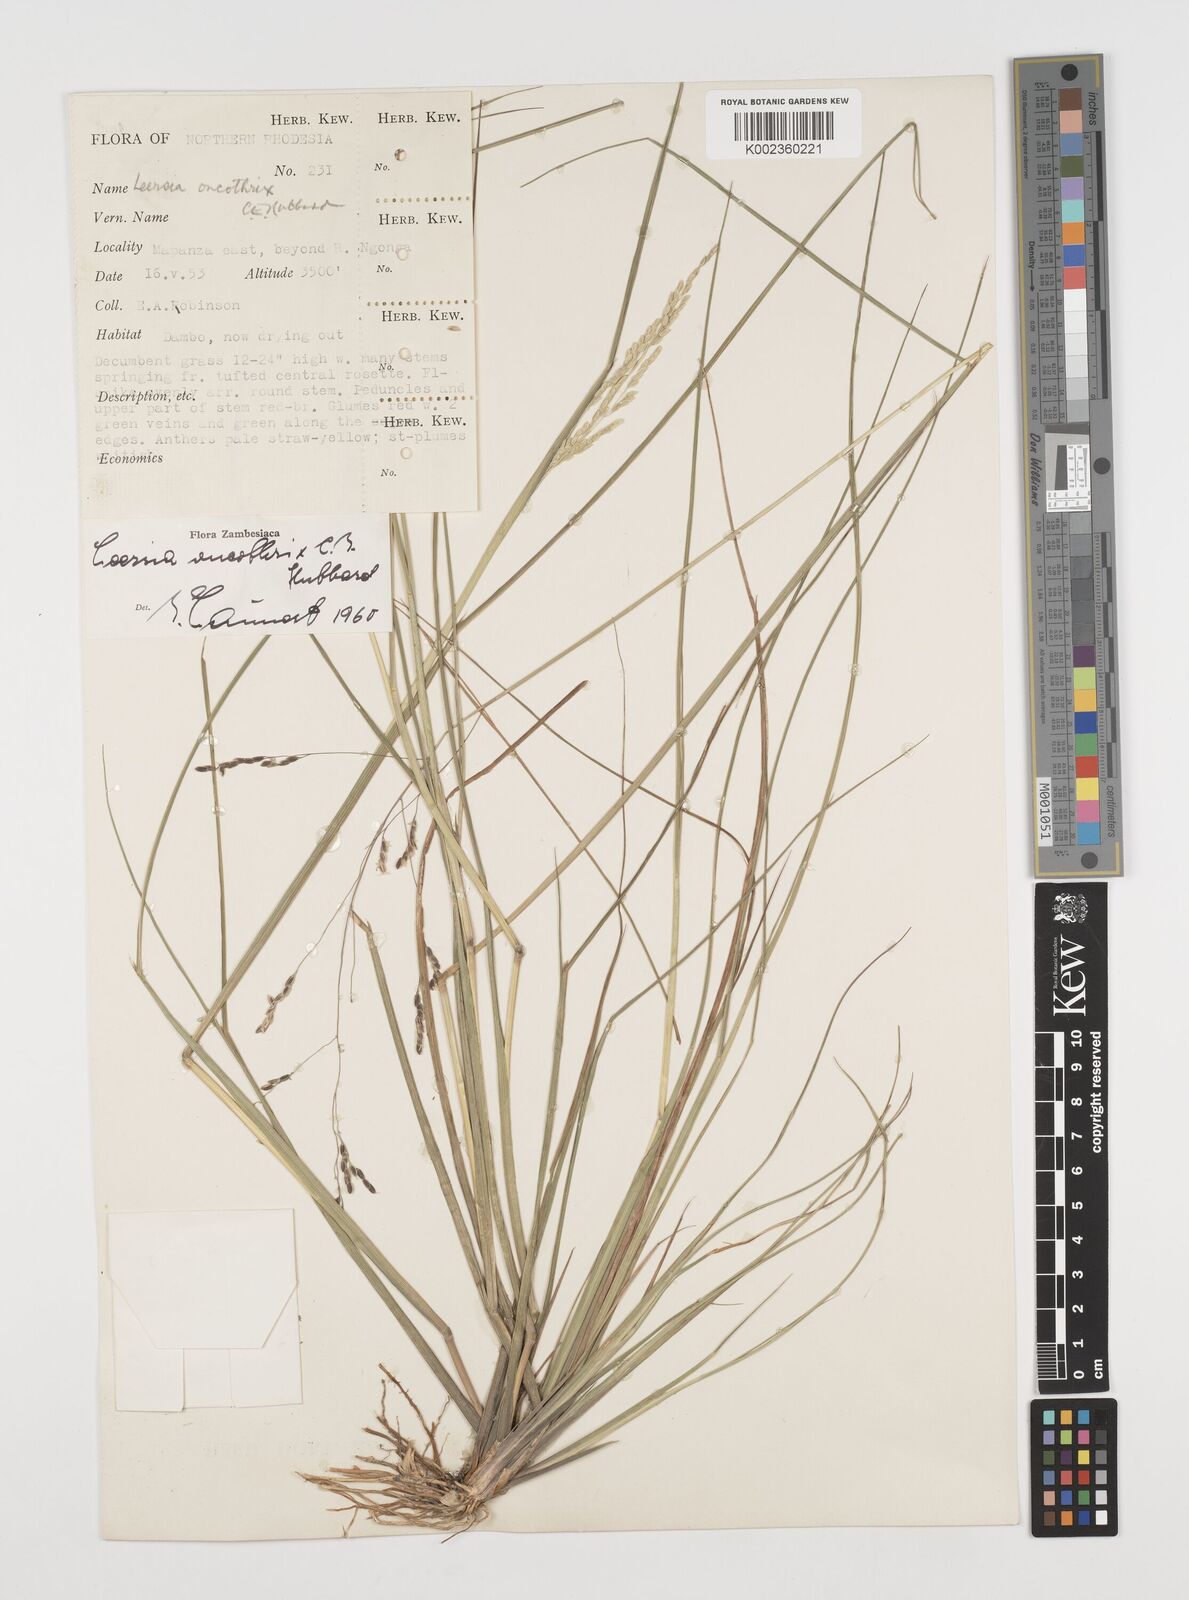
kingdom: Plantae
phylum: Tracheophyta
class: Liliopsida
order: Poales
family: Poaceae
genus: Leersia
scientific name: Leersia oncothrix
